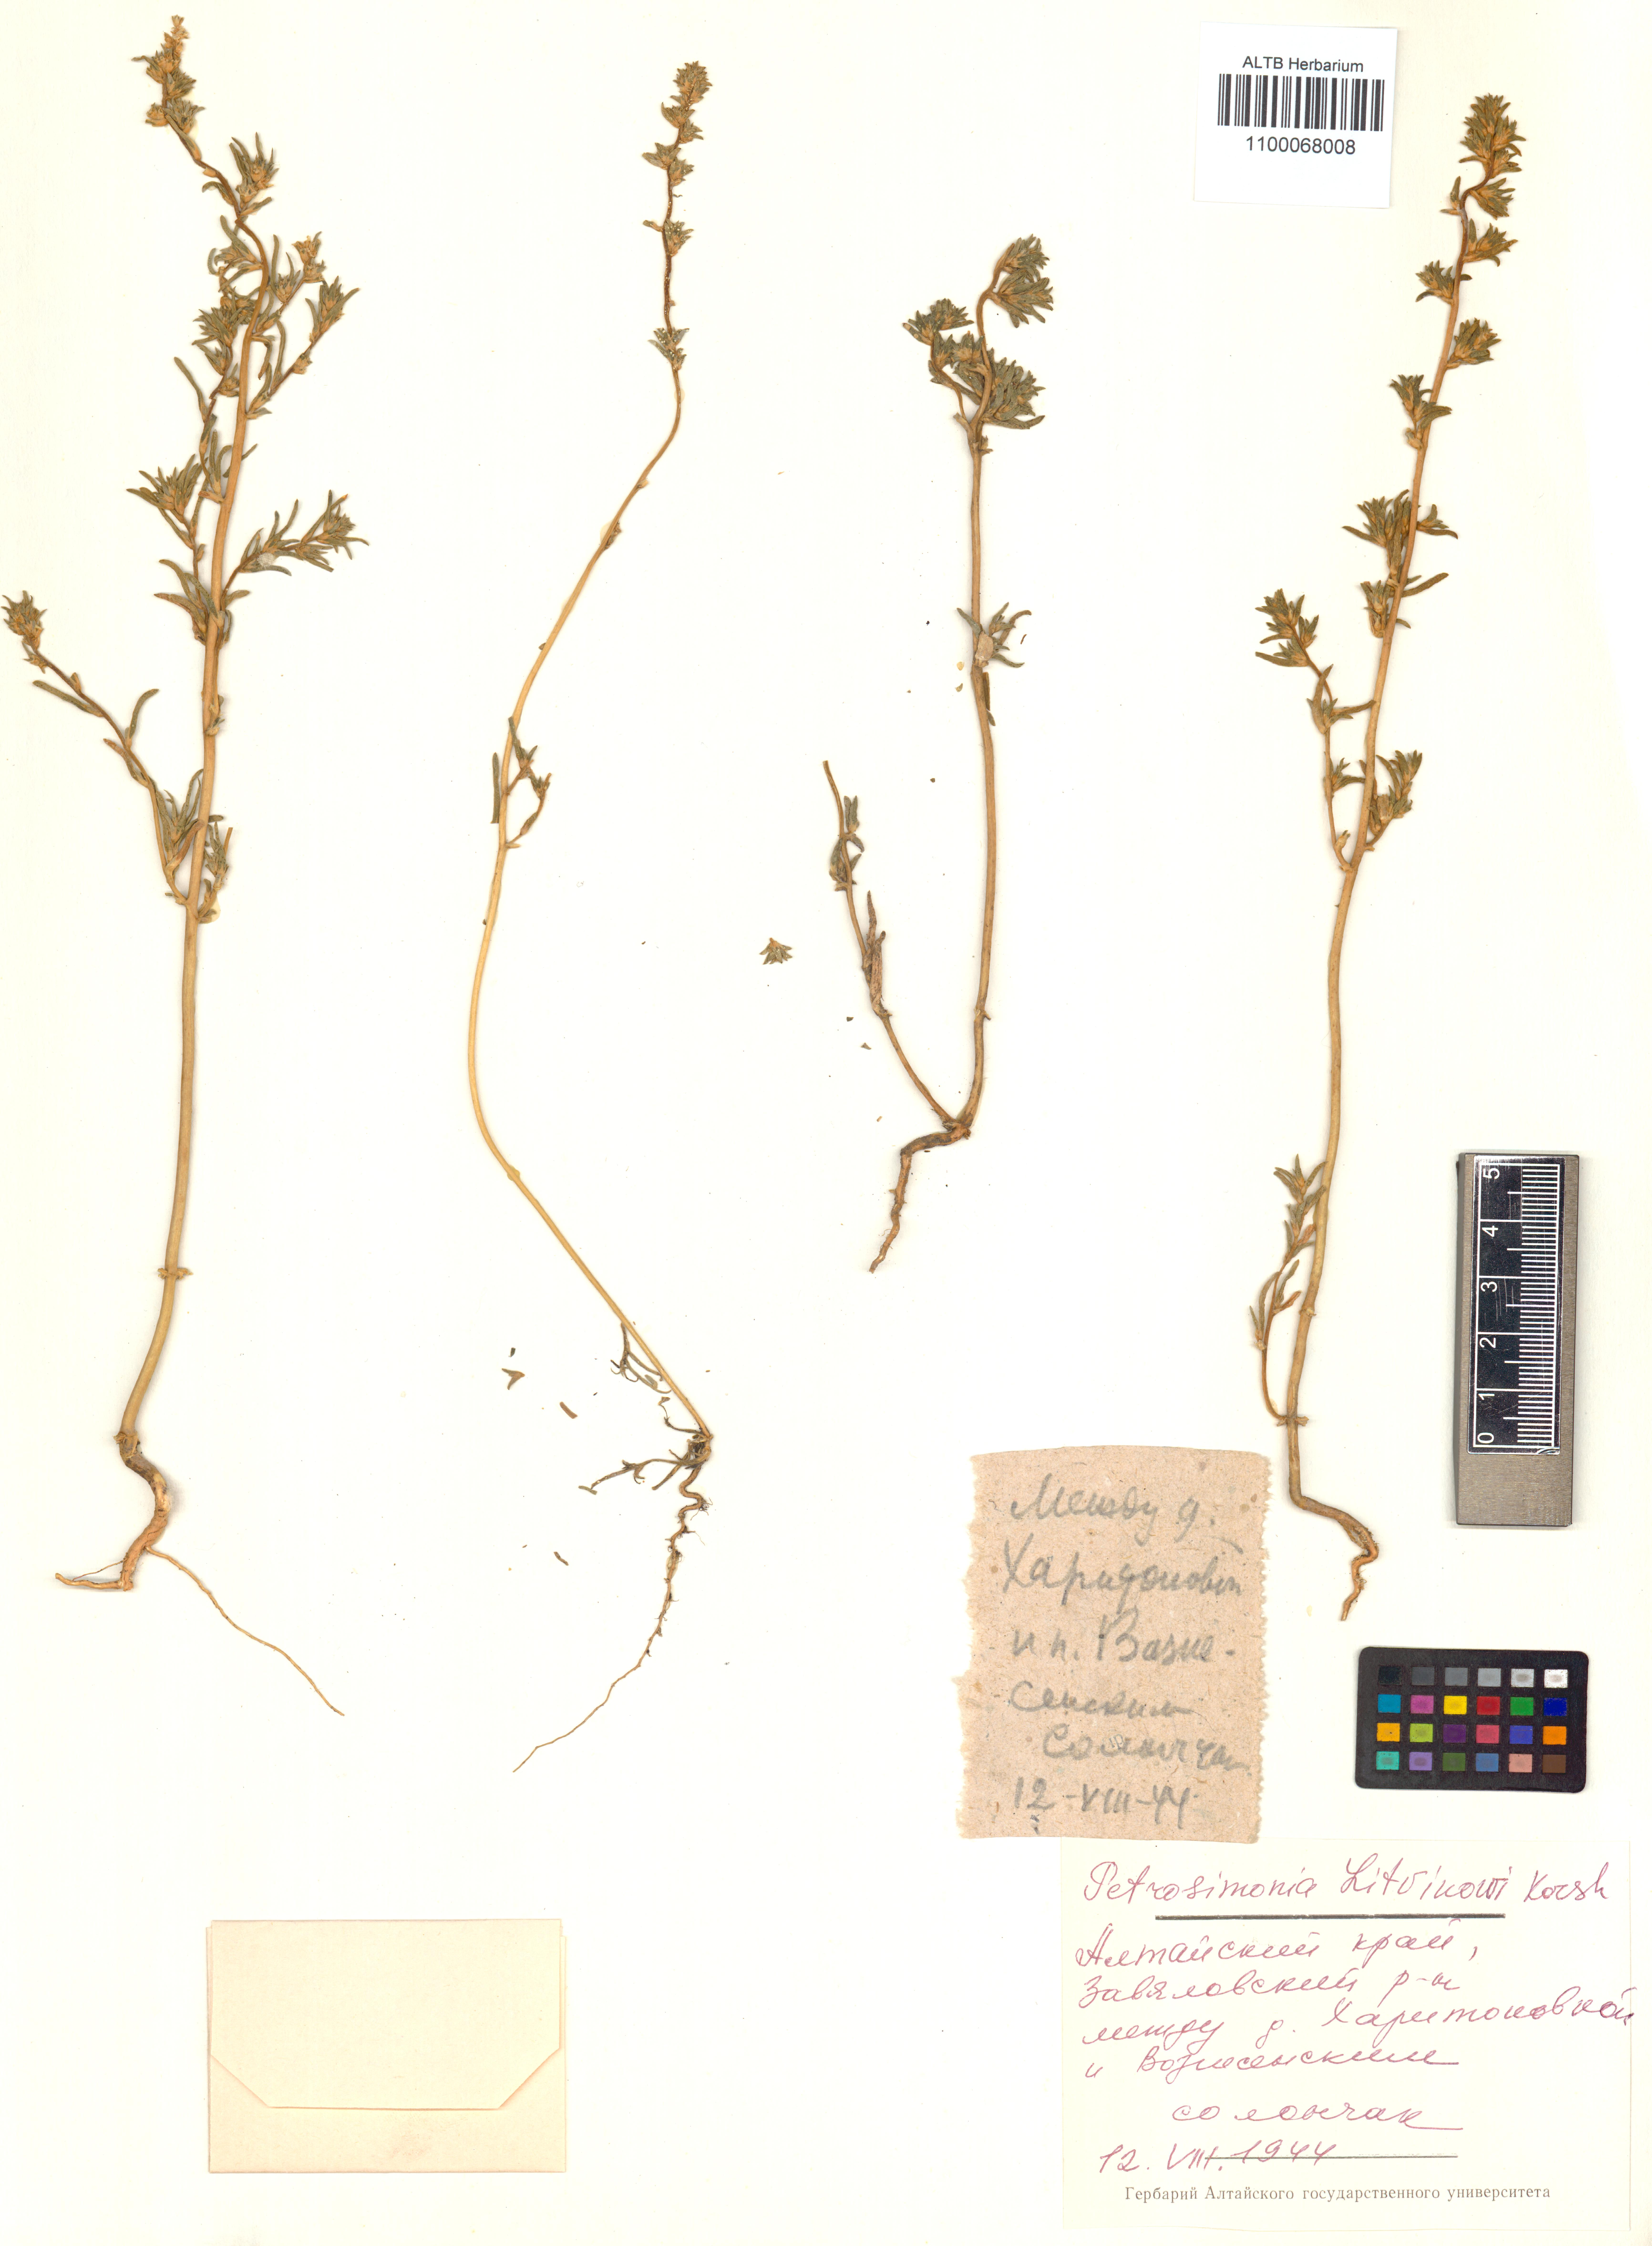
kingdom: Plantae
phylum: Tracheophyta
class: Magnoliopsida
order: Caryophyllales
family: Amaranthaceae
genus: Petrosimonia
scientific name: Petrosimonia litvinowi
